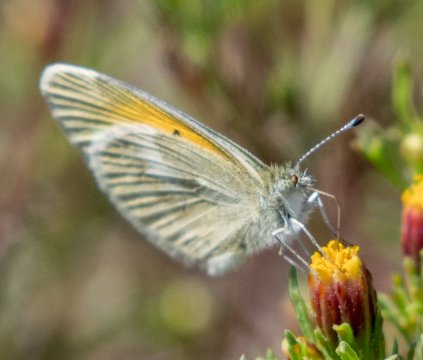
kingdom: Animalia
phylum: Arthropoda
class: Insecta
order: Lepidoptera
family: Pieridae
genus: Nathalis
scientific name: Nathalis iole
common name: Dainty Sulphur
